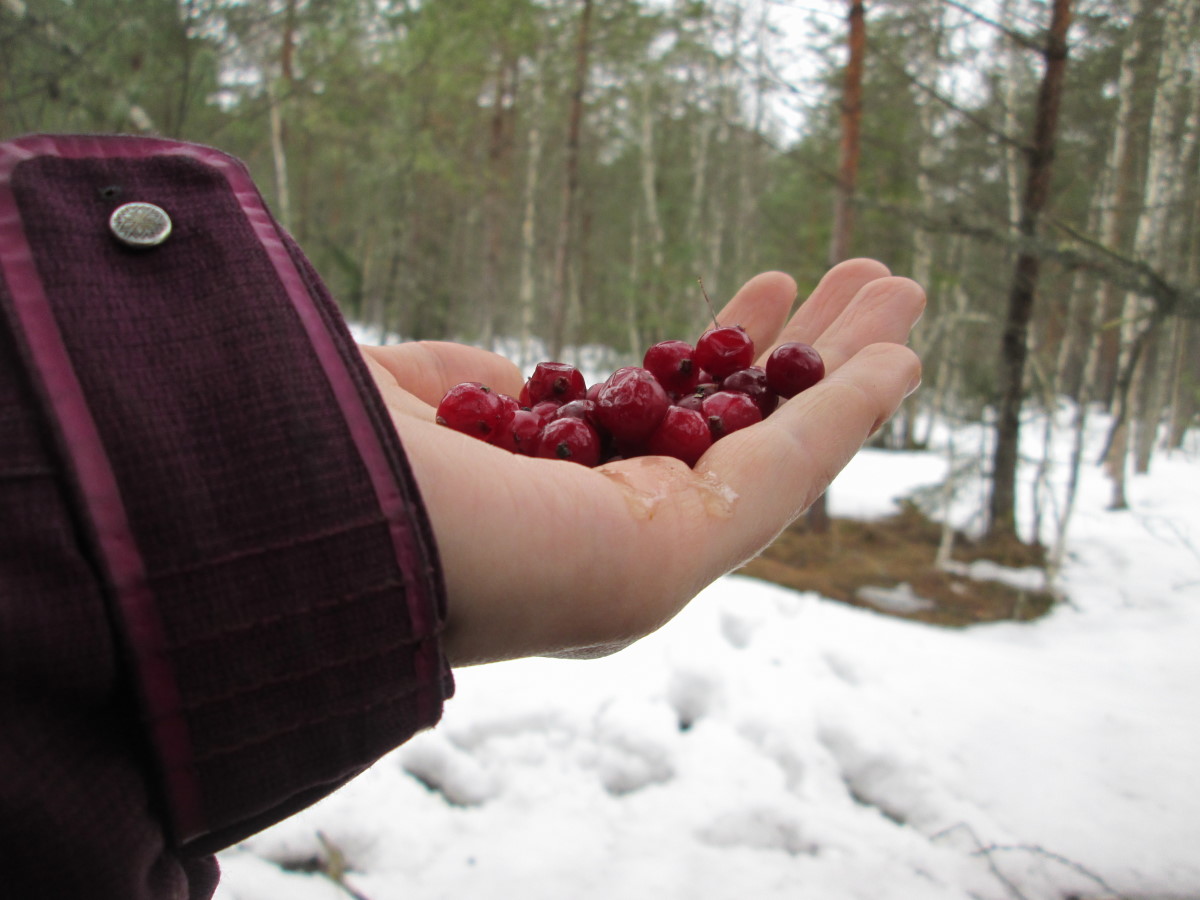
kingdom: Plantae
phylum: Tracheophyta
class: Magnoliopsida
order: Ericales
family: Ericaceae
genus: Vaccinium
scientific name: Vaccinium oxycoccos
